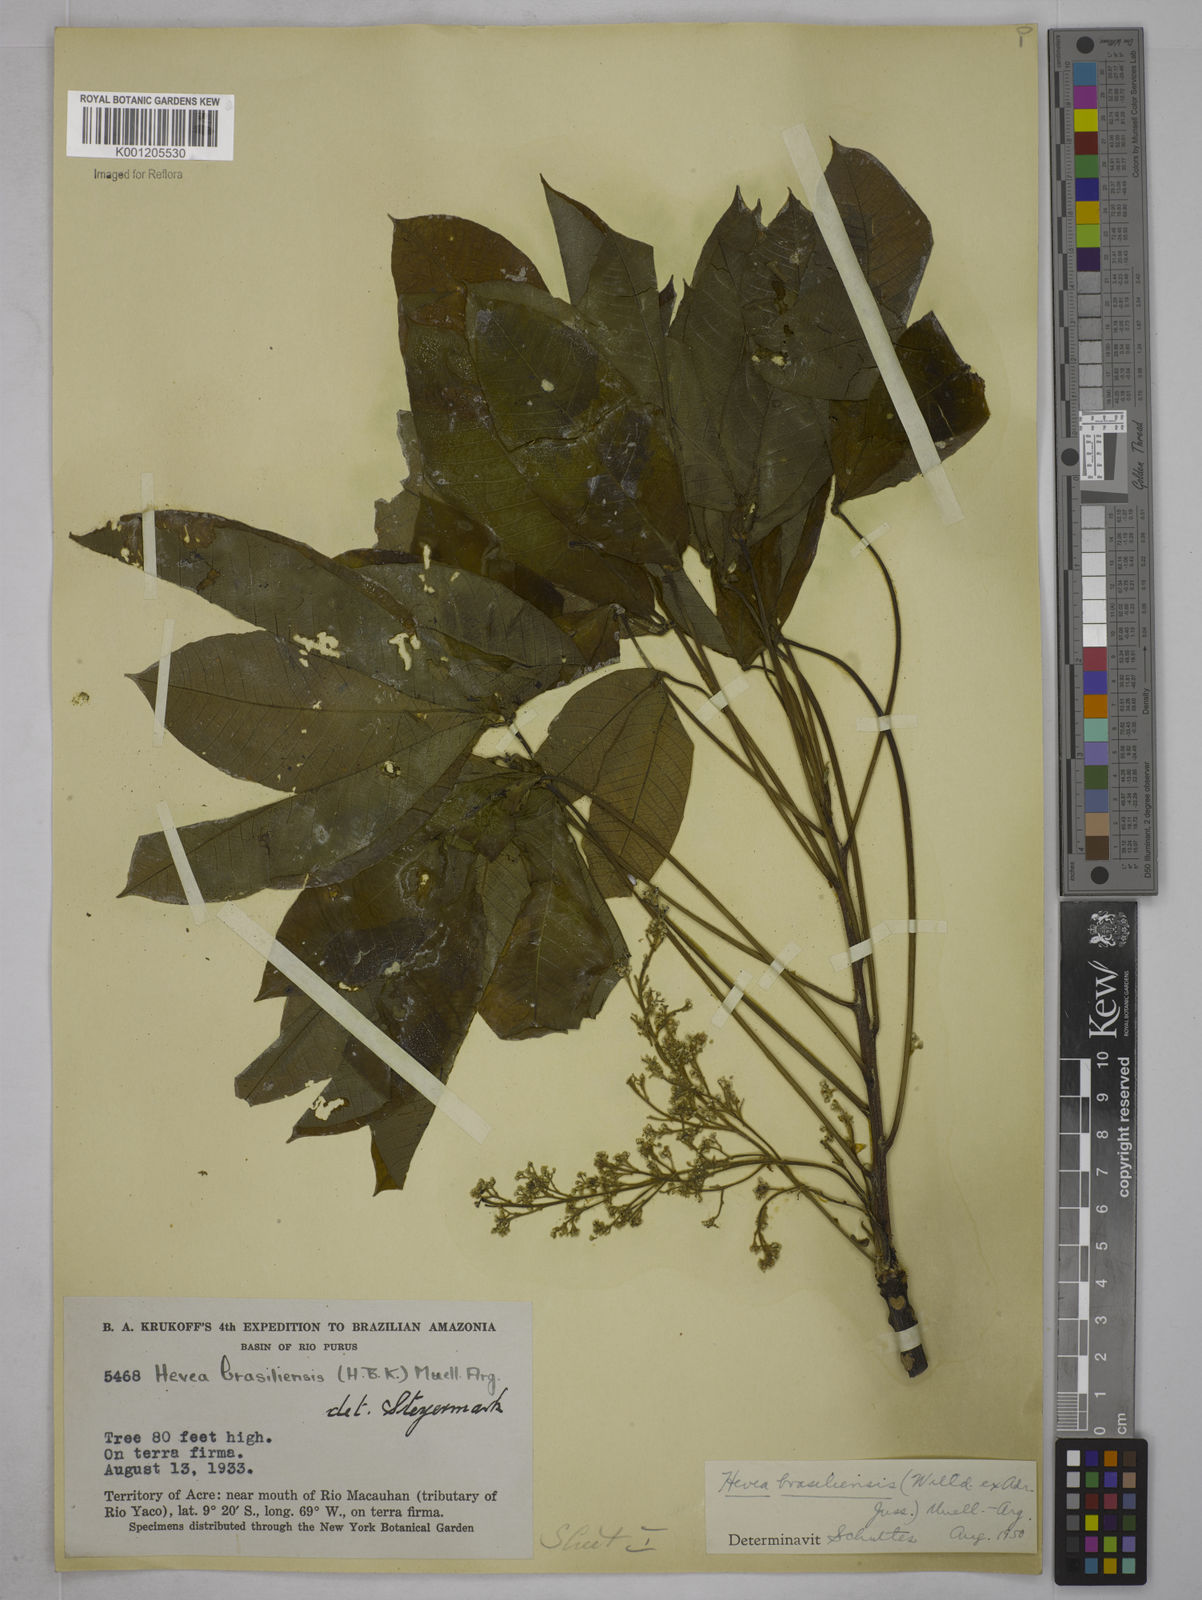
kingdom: Plantae
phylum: Tracheophyta
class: Magnoliopsida
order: Malpighiales
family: Euphorbiaceae
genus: Hevea
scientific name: Hevea
